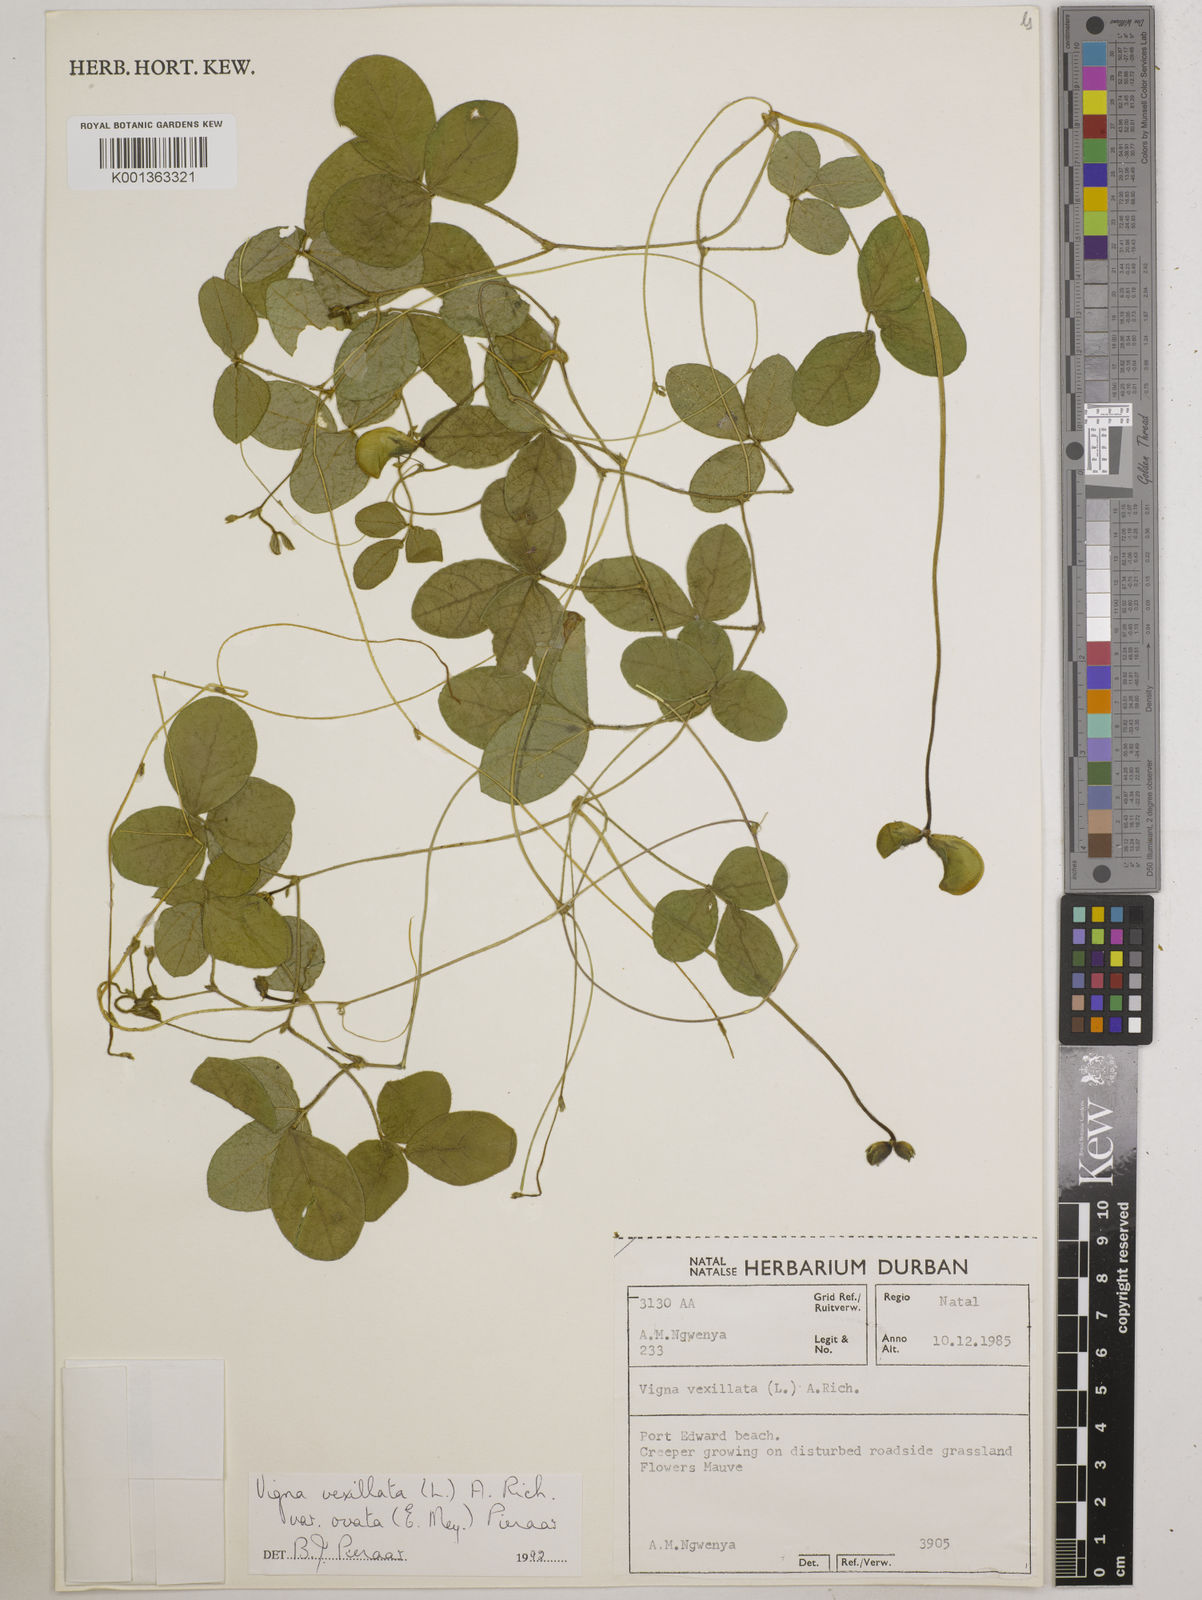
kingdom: Plantae
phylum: Tracheophyta
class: Magnoliopsida
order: Fabales
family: Fabaceae
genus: Vigna
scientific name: Vigna vexillata
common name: Zombi pea
